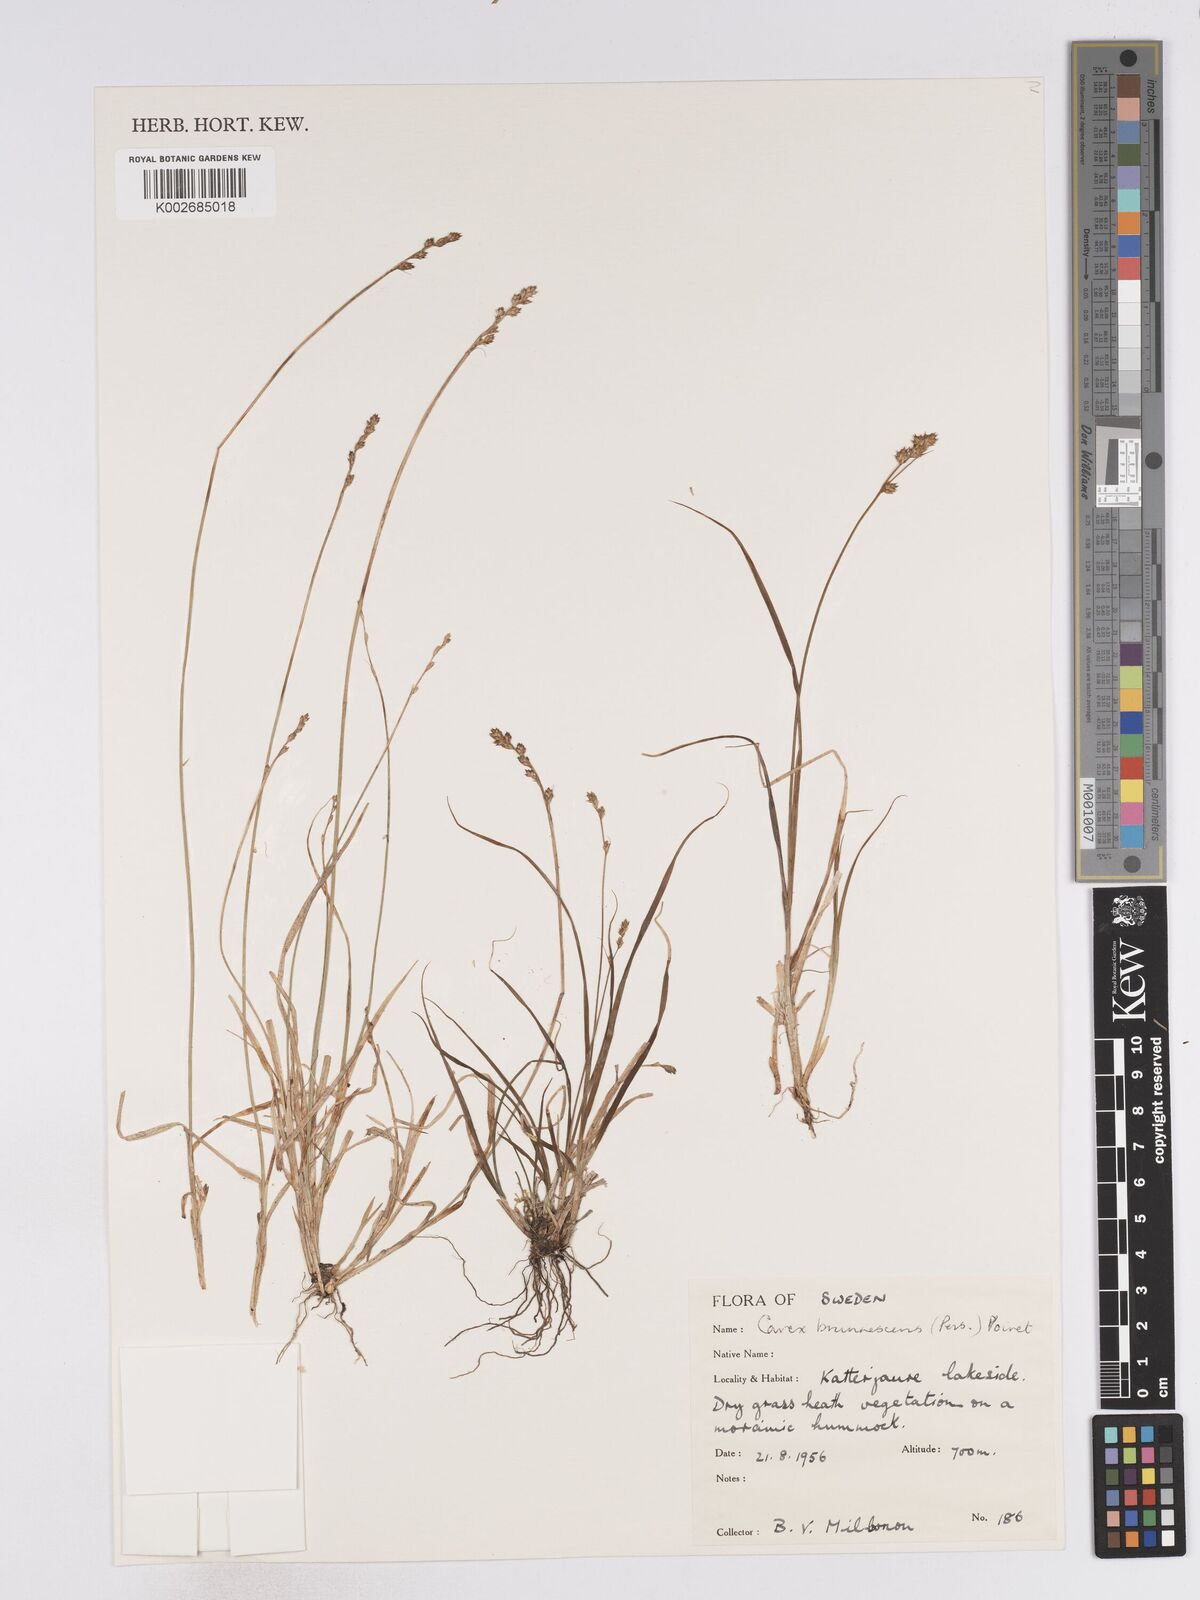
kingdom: Plantae
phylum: Tracheophyta
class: Liliopsida
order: Poales
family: Cyperaceae
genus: Carex
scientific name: Carex brunnescens
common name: Brown sedge
